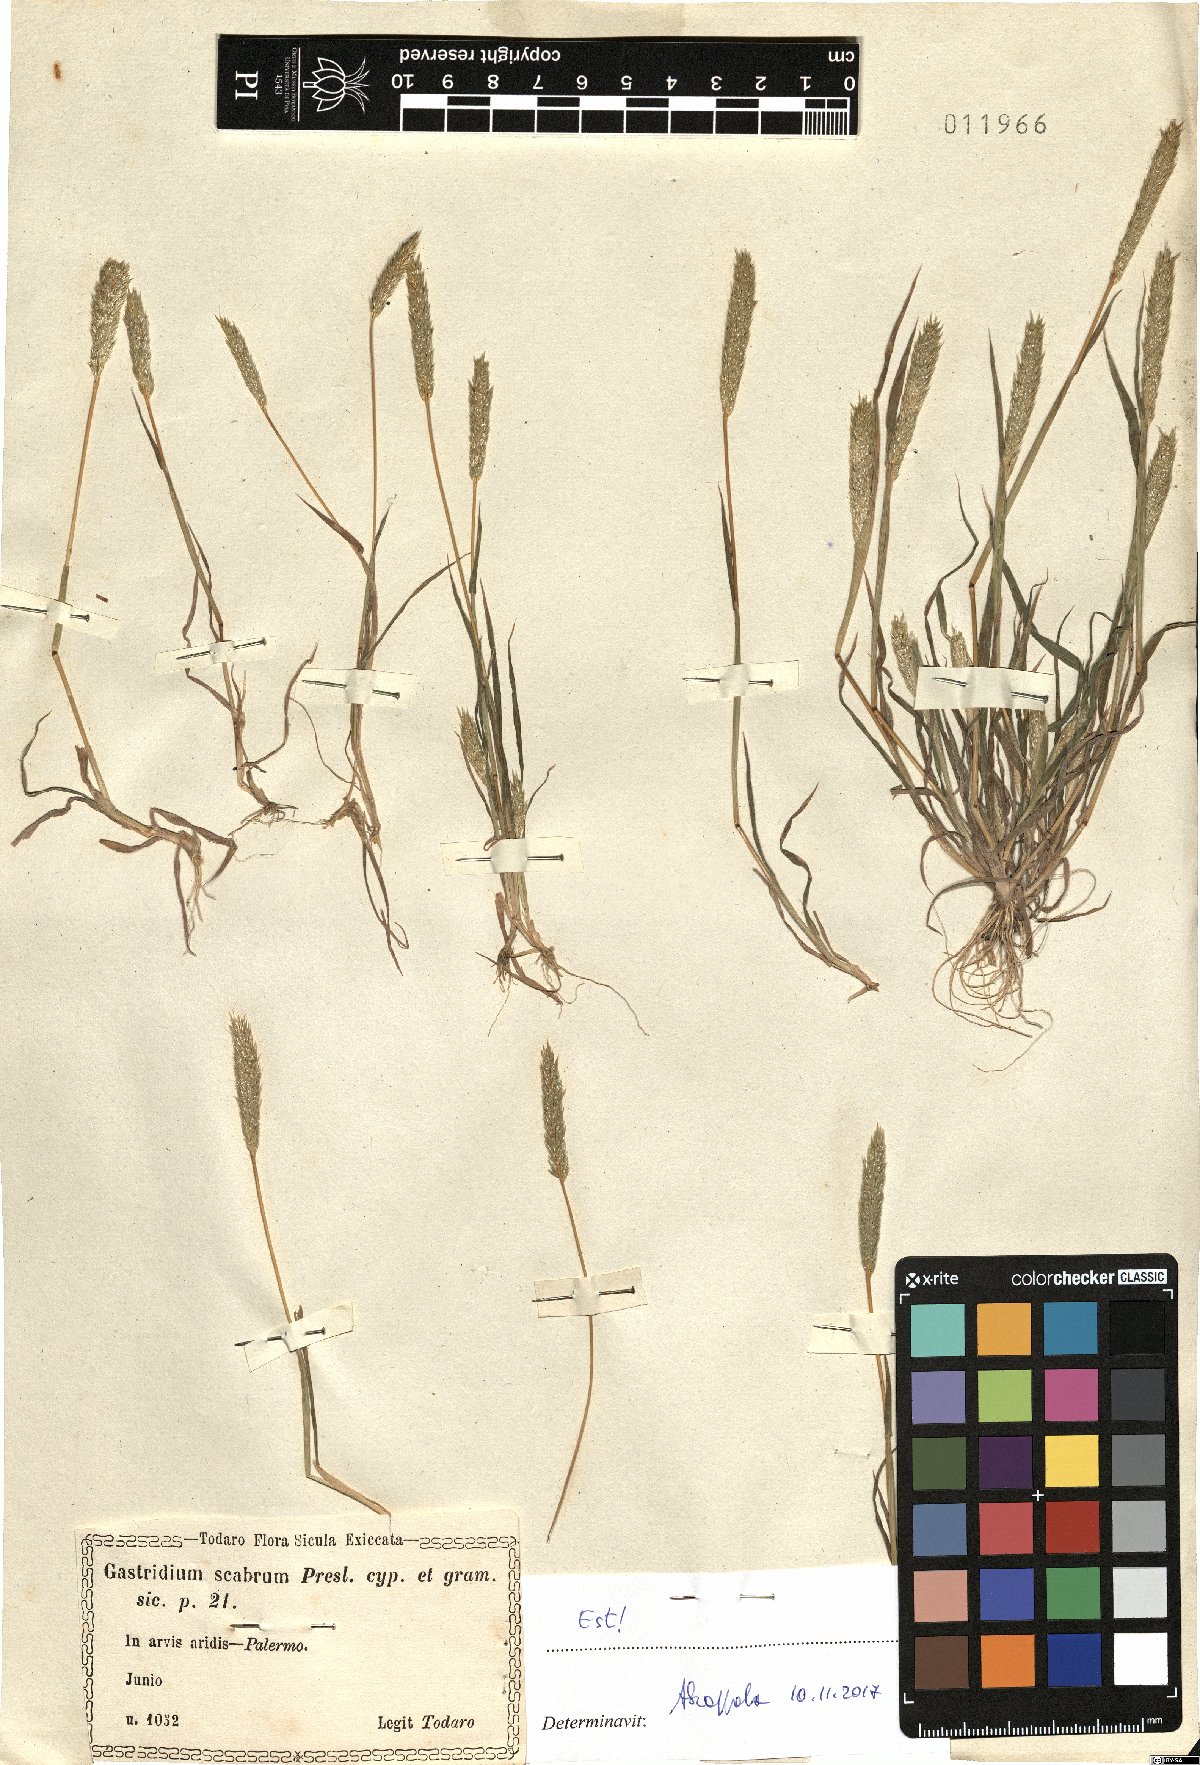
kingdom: Plantae
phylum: Tracheophyta
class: Liliopsida
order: Poales
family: Poaceae
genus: Gastridium
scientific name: Gastridium scabrum
